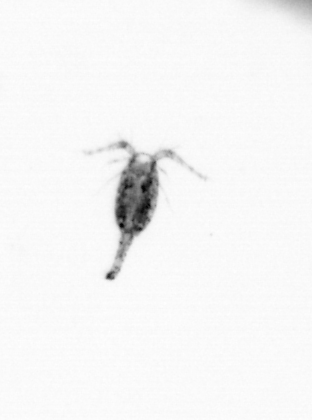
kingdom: Animalia
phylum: Arthropoda
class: Copepoda
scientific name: Copepoda
